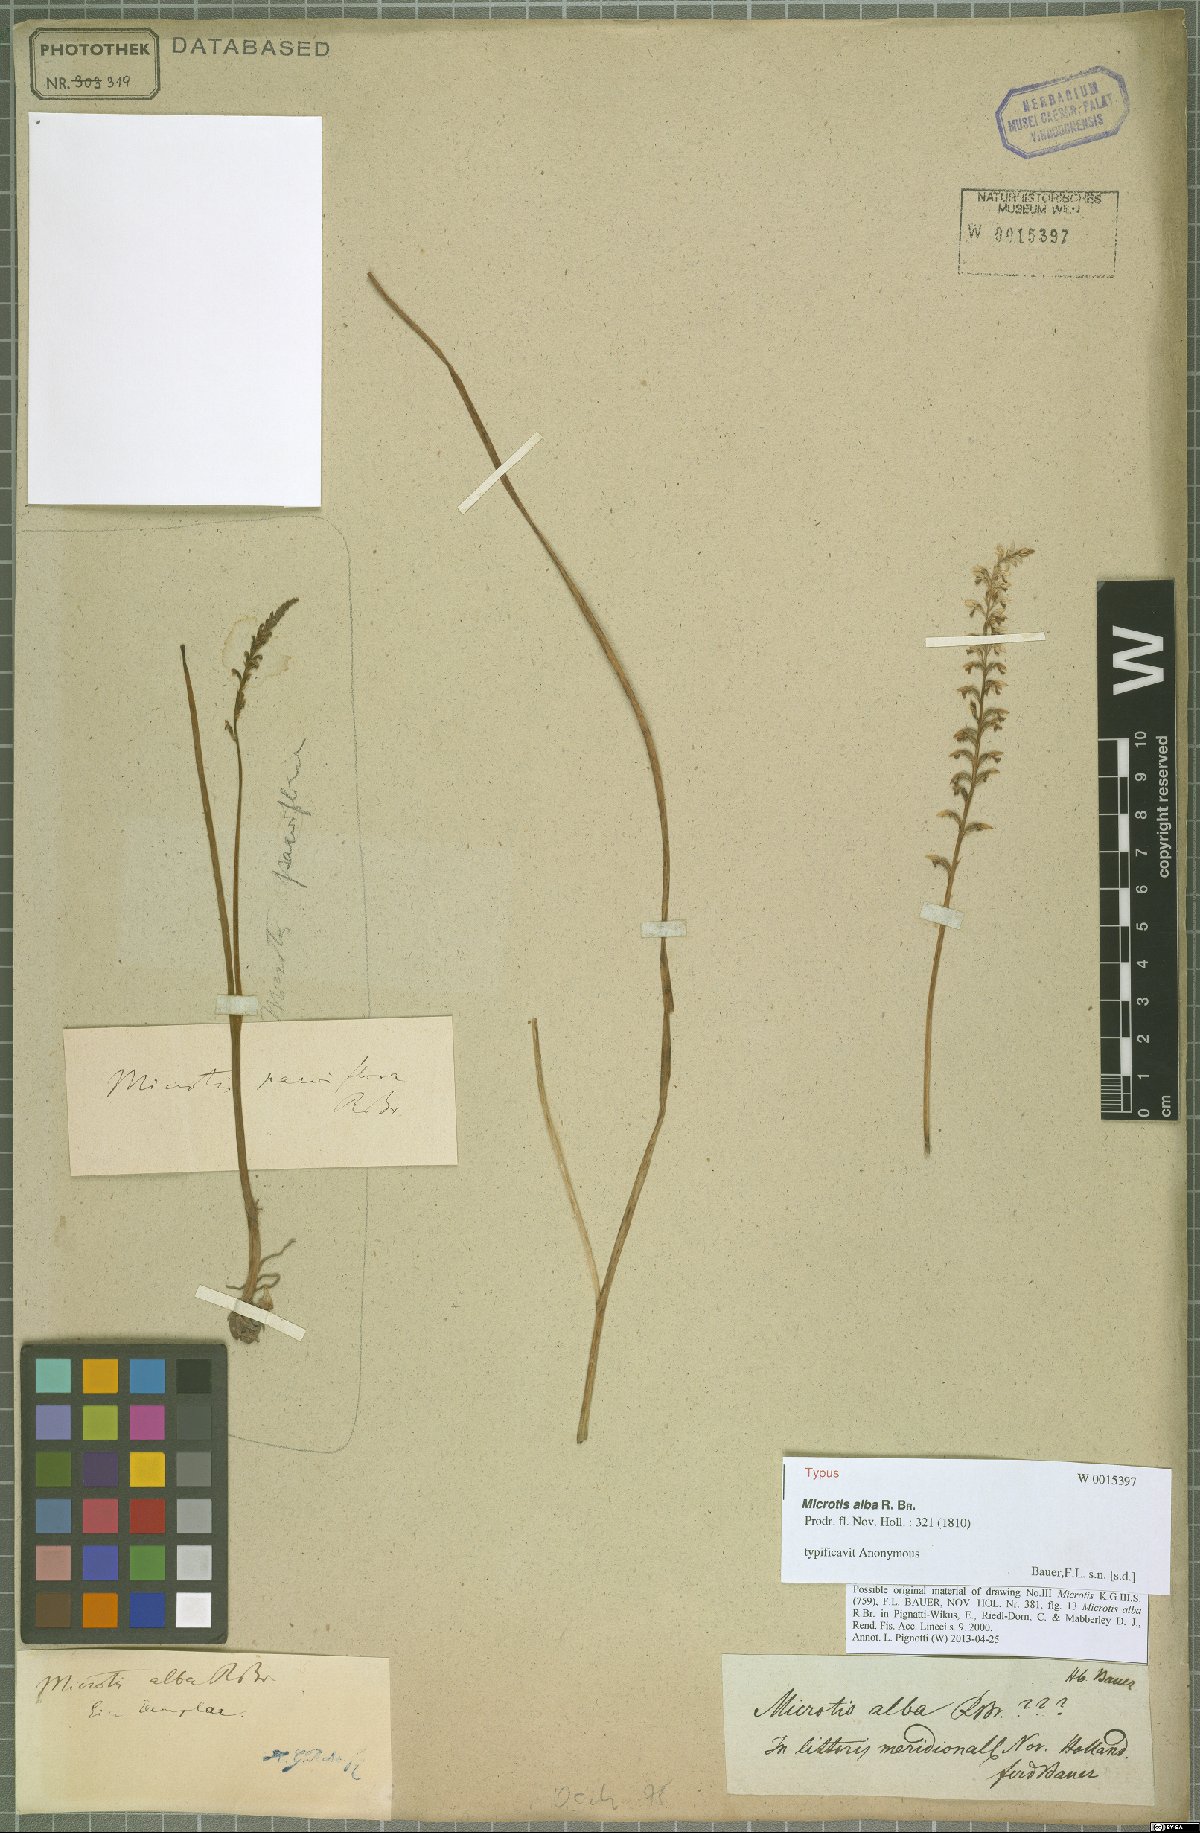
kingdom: Plantae
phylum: Tracheophyta
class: Liliopsida
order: Asparagales
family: Orchidaceae
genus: Microtis
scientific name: Microtis alba
